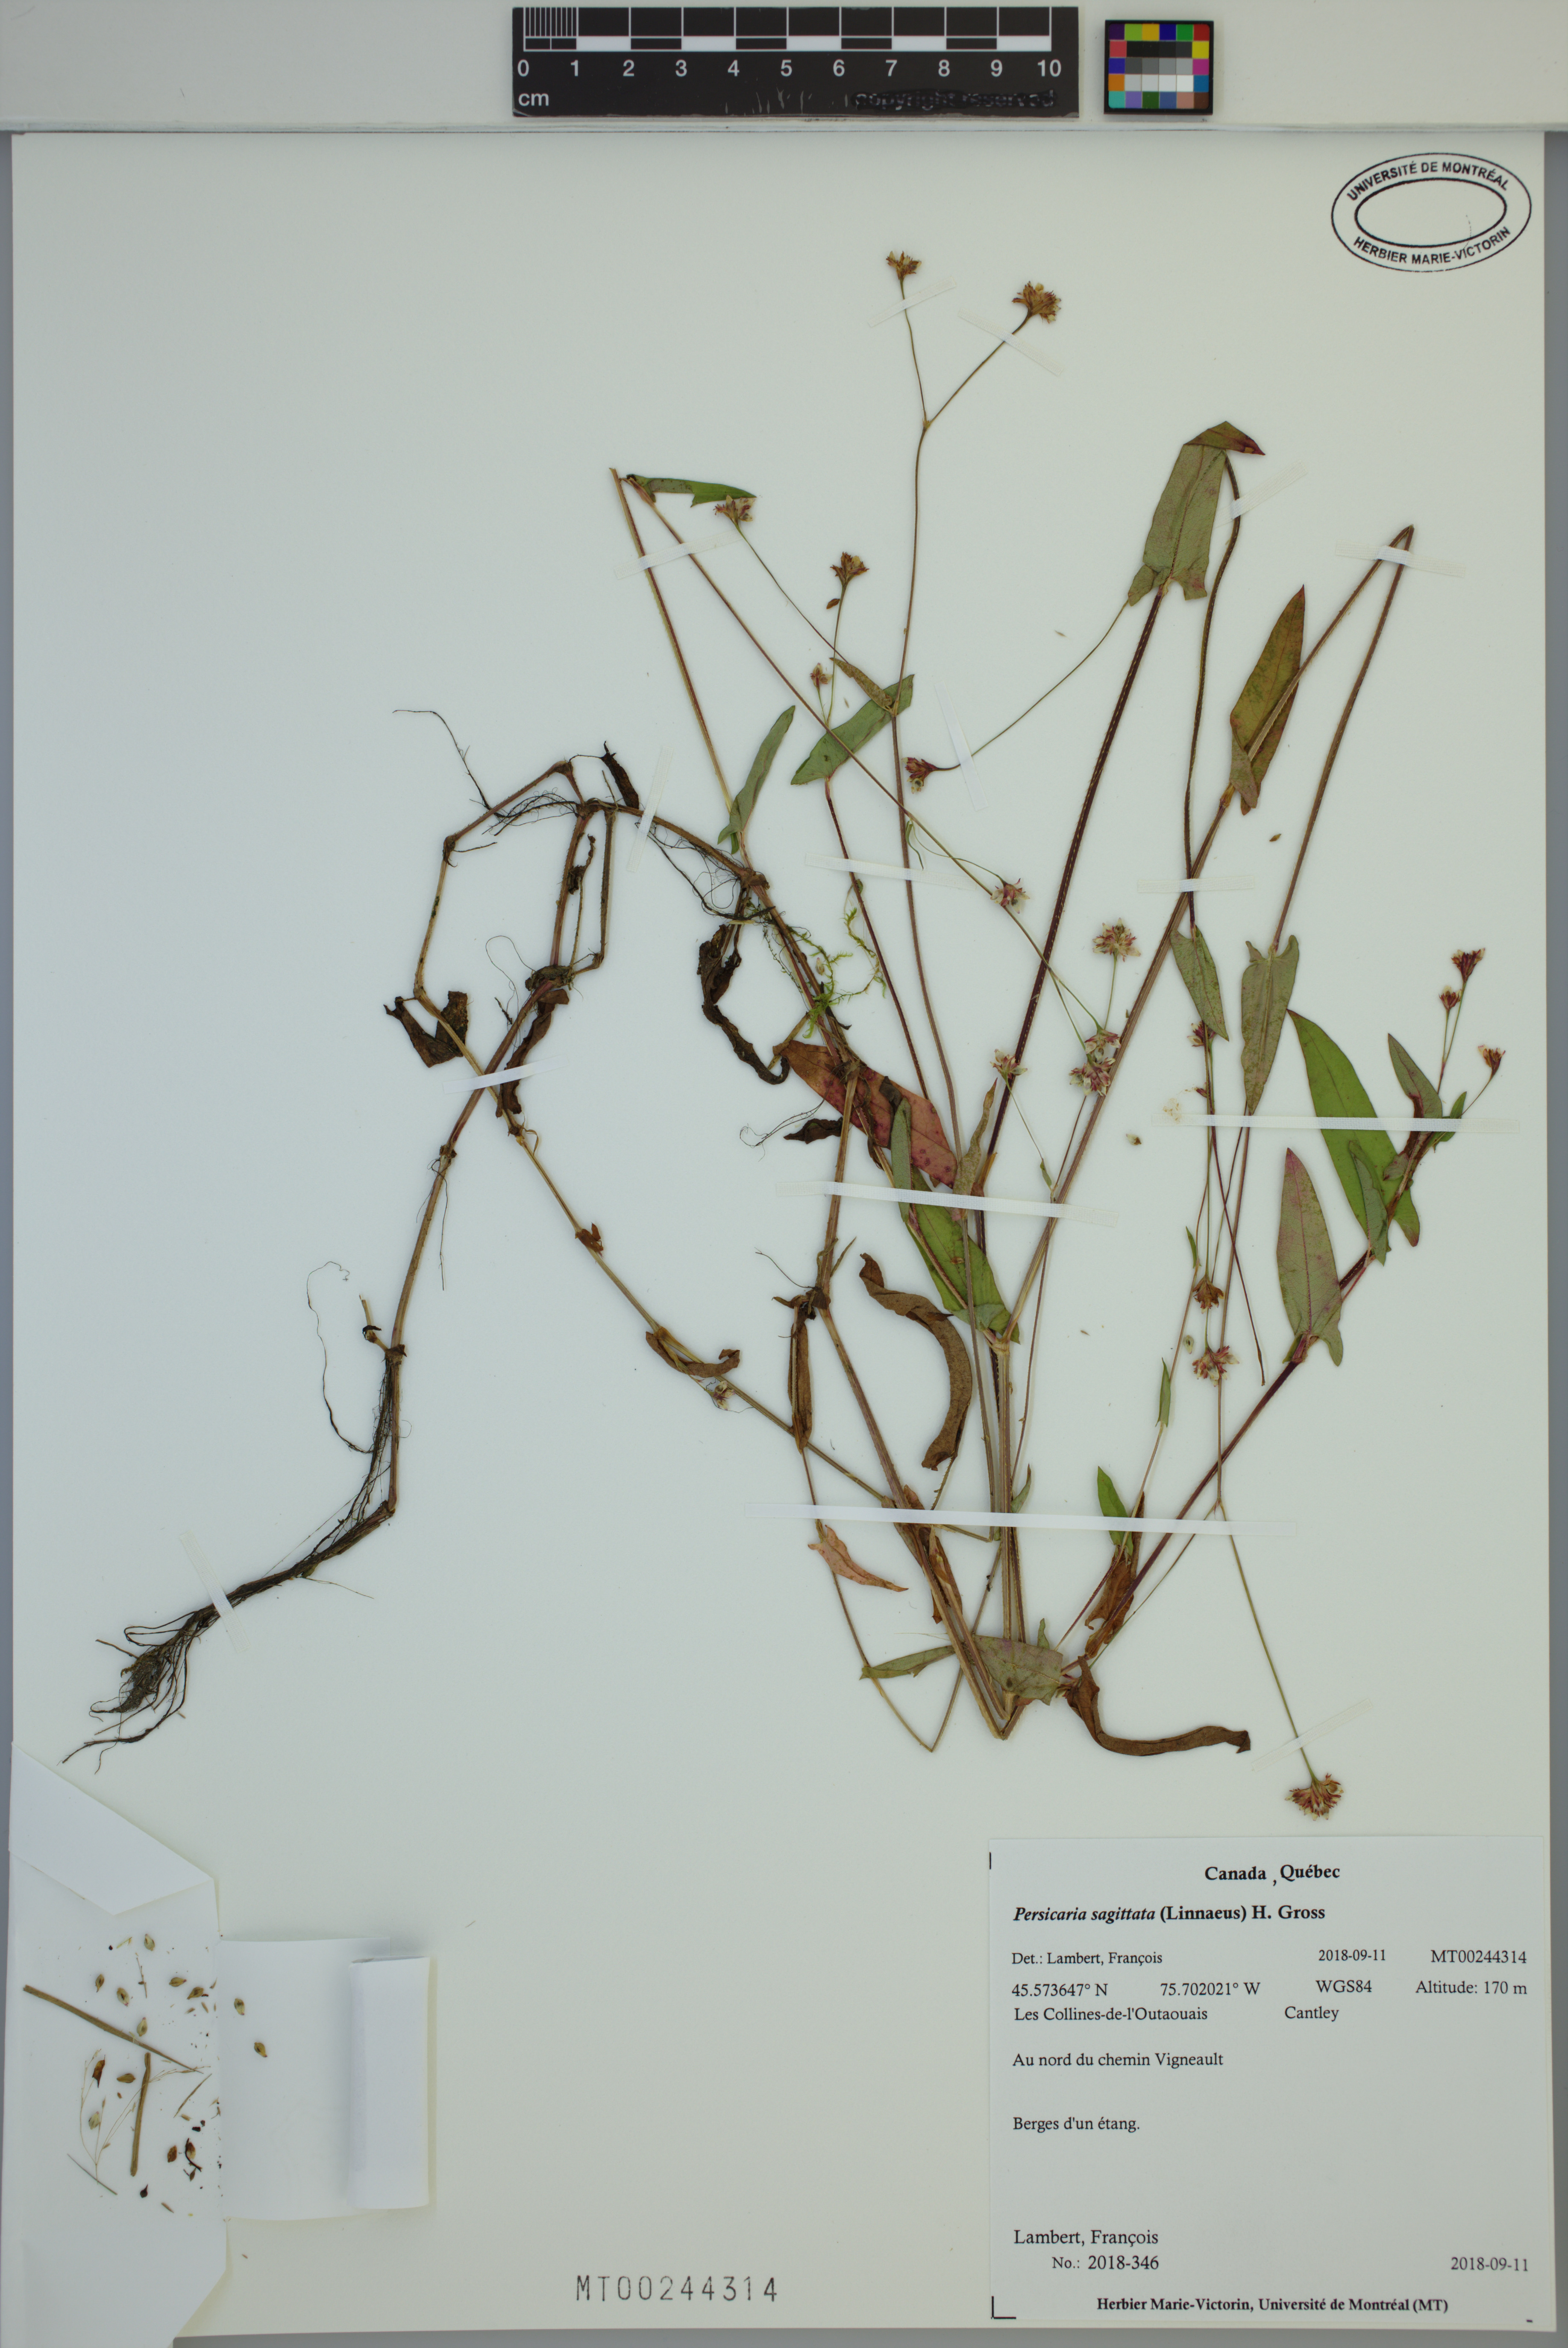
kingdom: Plantae
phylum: Tracheophyta
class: Magnoliopsida
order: Caryophyllales
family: Polygonaceae
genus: Persicaria
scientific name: Persicaria sagittata
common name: American tearthumb
